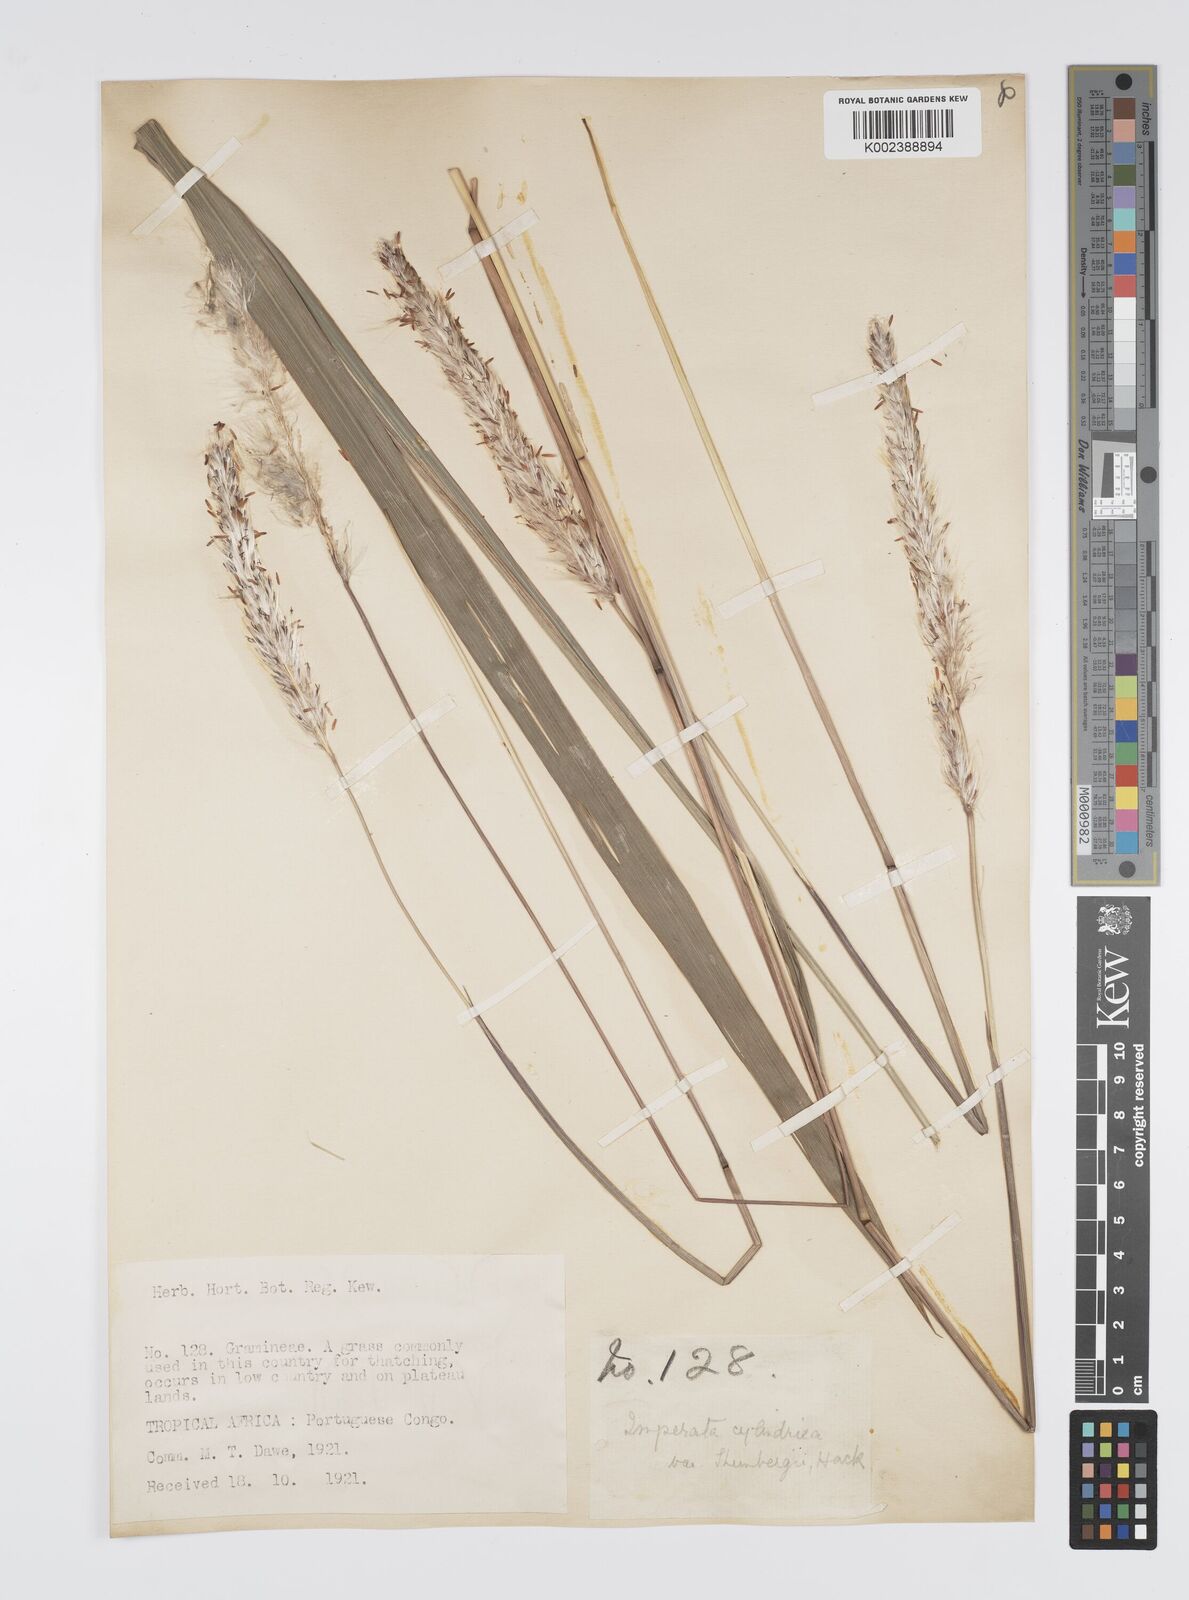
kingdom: Plantae
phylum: Tracheophyta
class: Liliopsida
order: Poales
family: Poaceae
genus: Imperata
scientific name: Imperata cylindrica
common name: Cogongrass
